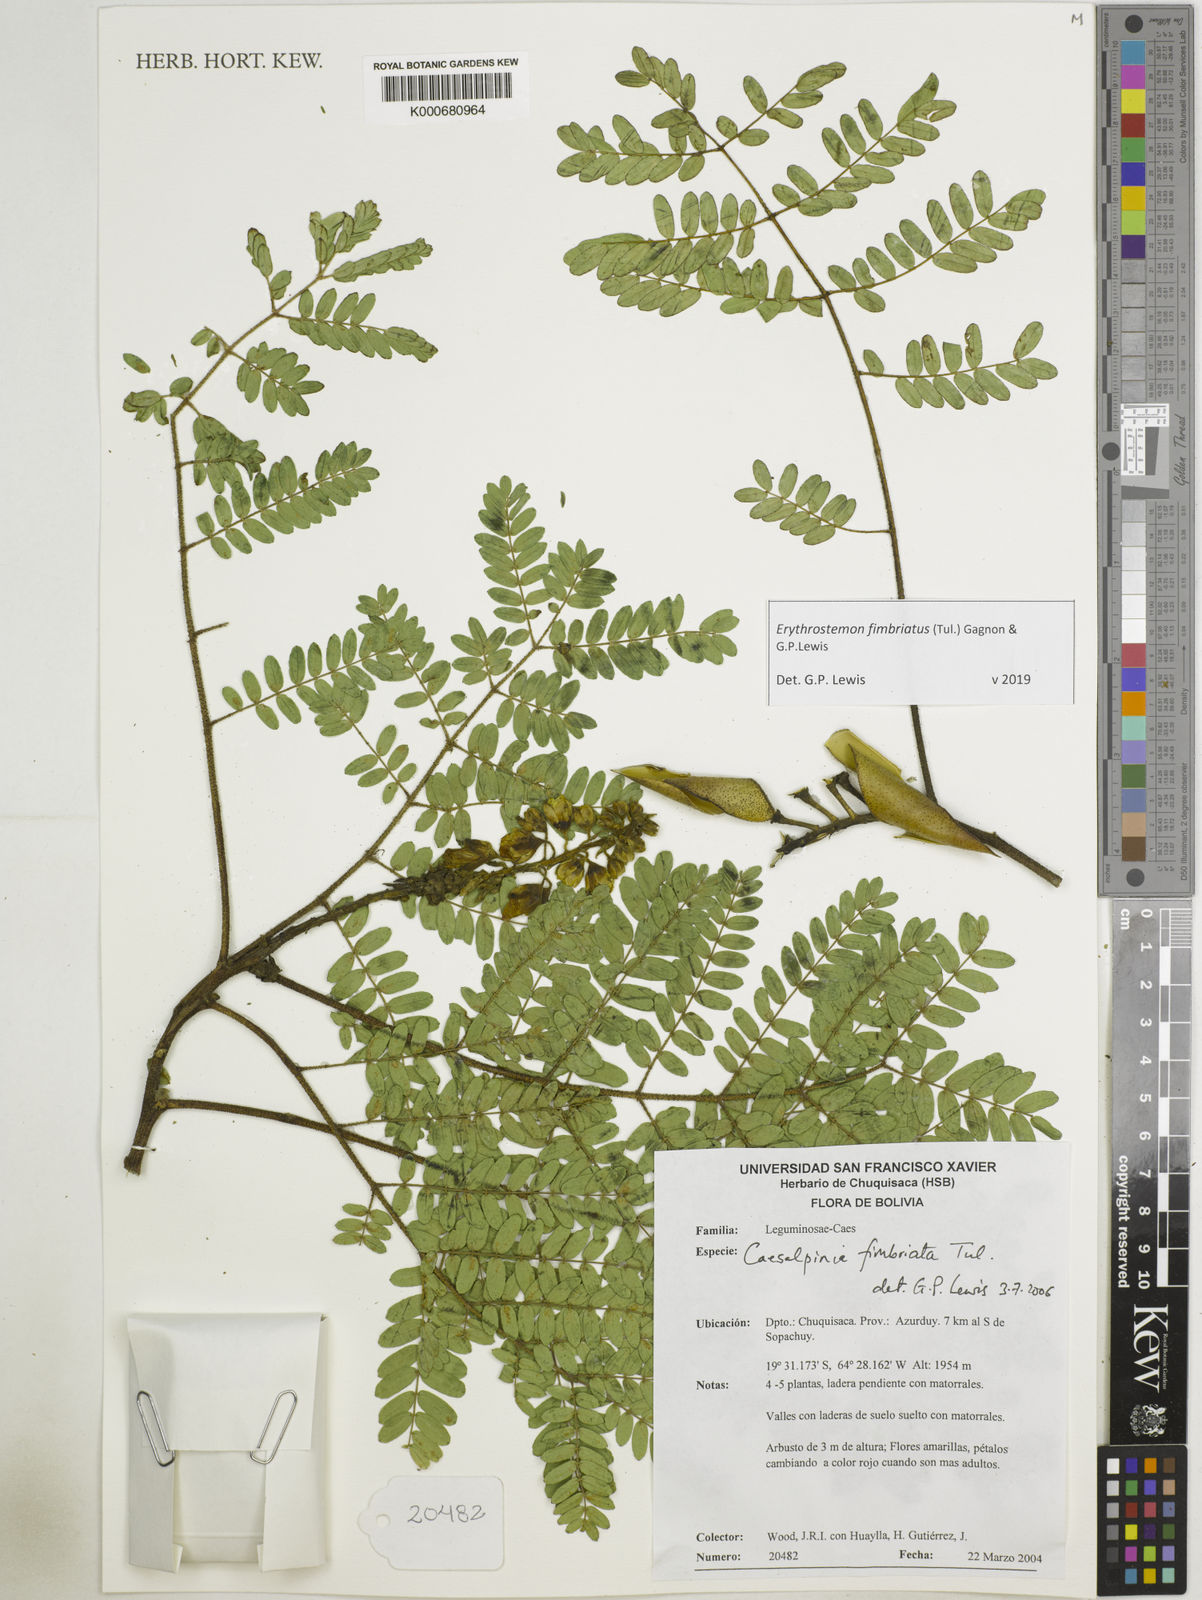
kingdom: Plantae
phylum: Tracheophyta
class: Magnoliopsida
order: Fabales
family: Fabaceae
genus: Erythrostemon
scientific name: Erythrostemon fimbriatus
